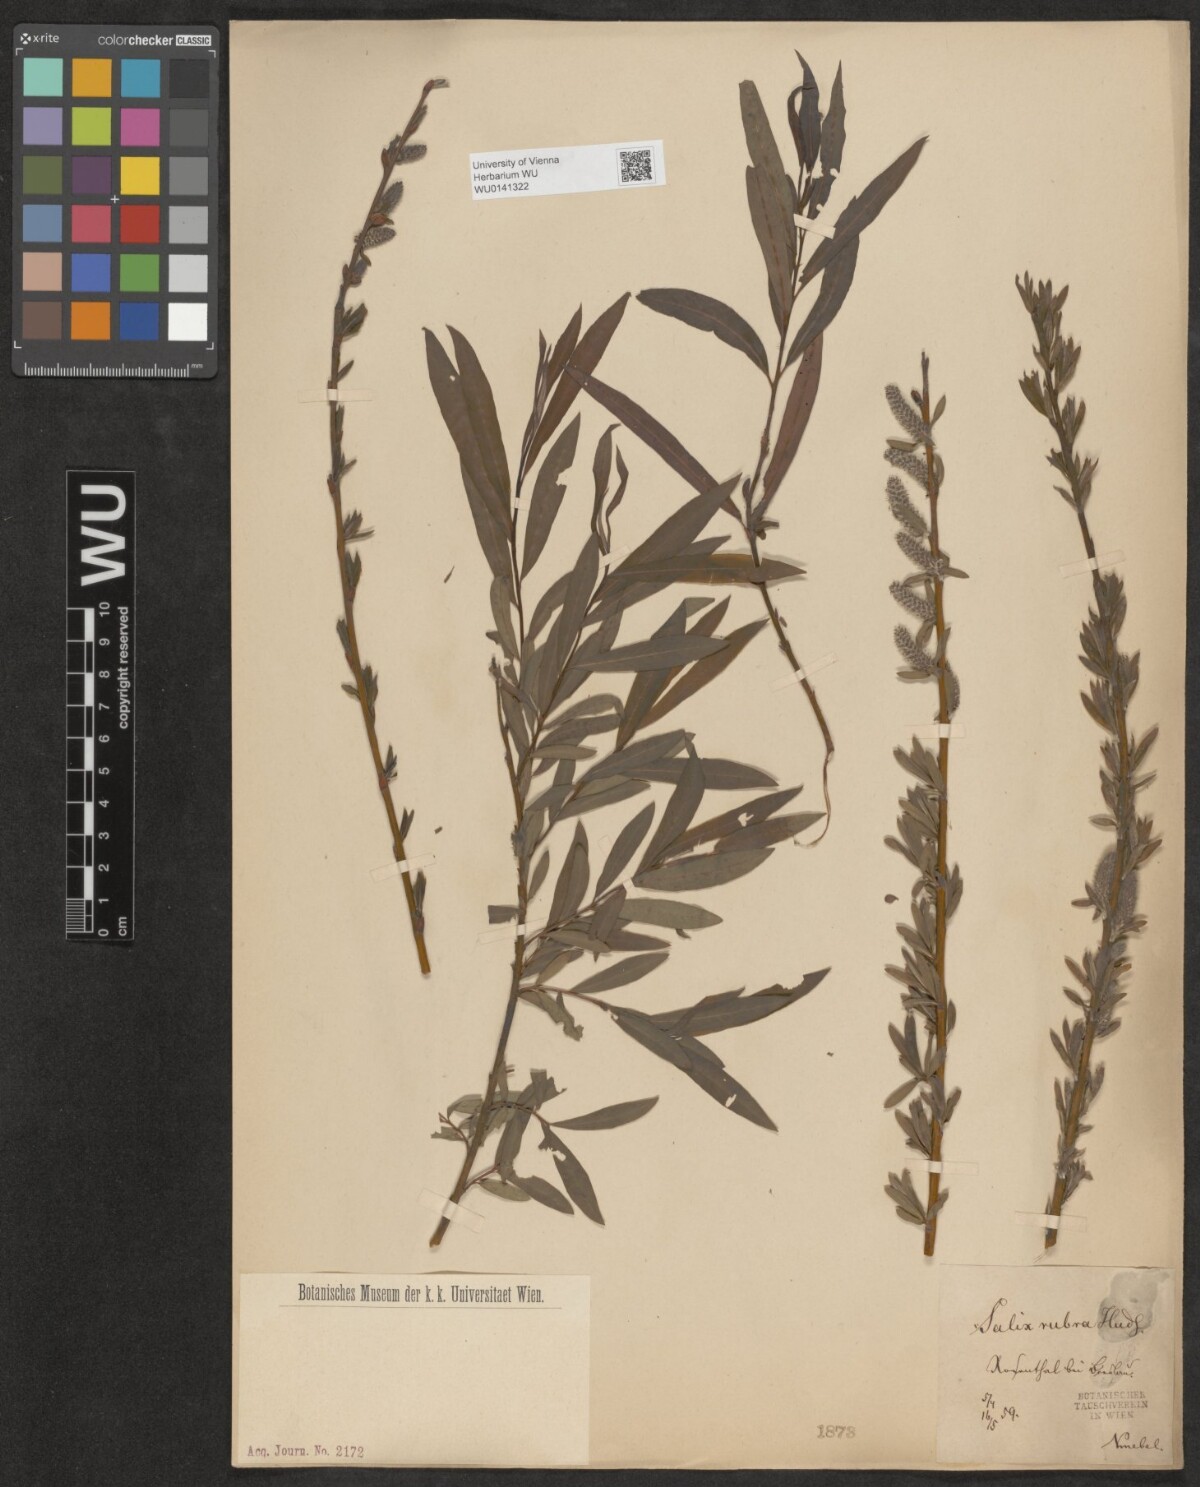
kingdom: Plantae
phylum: Tracheophyta
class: Magnoliopsida
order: Malpighiales
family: Salicaceae
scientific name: Salicaceae
